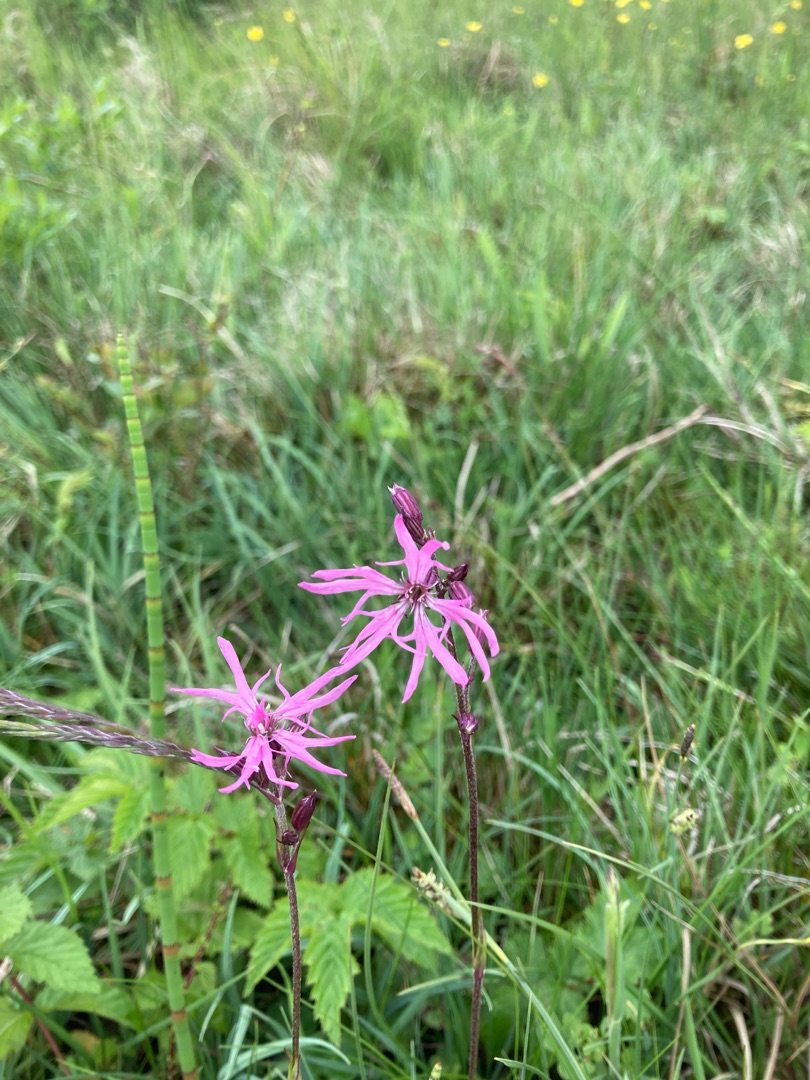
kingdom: Plantae
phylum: Tracheophyta
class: Magnoliopsida
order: Caryophyllales
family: Caryophyllaceae
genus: Silene
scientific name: Silene flos-cuculi
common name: Trævlekrone
